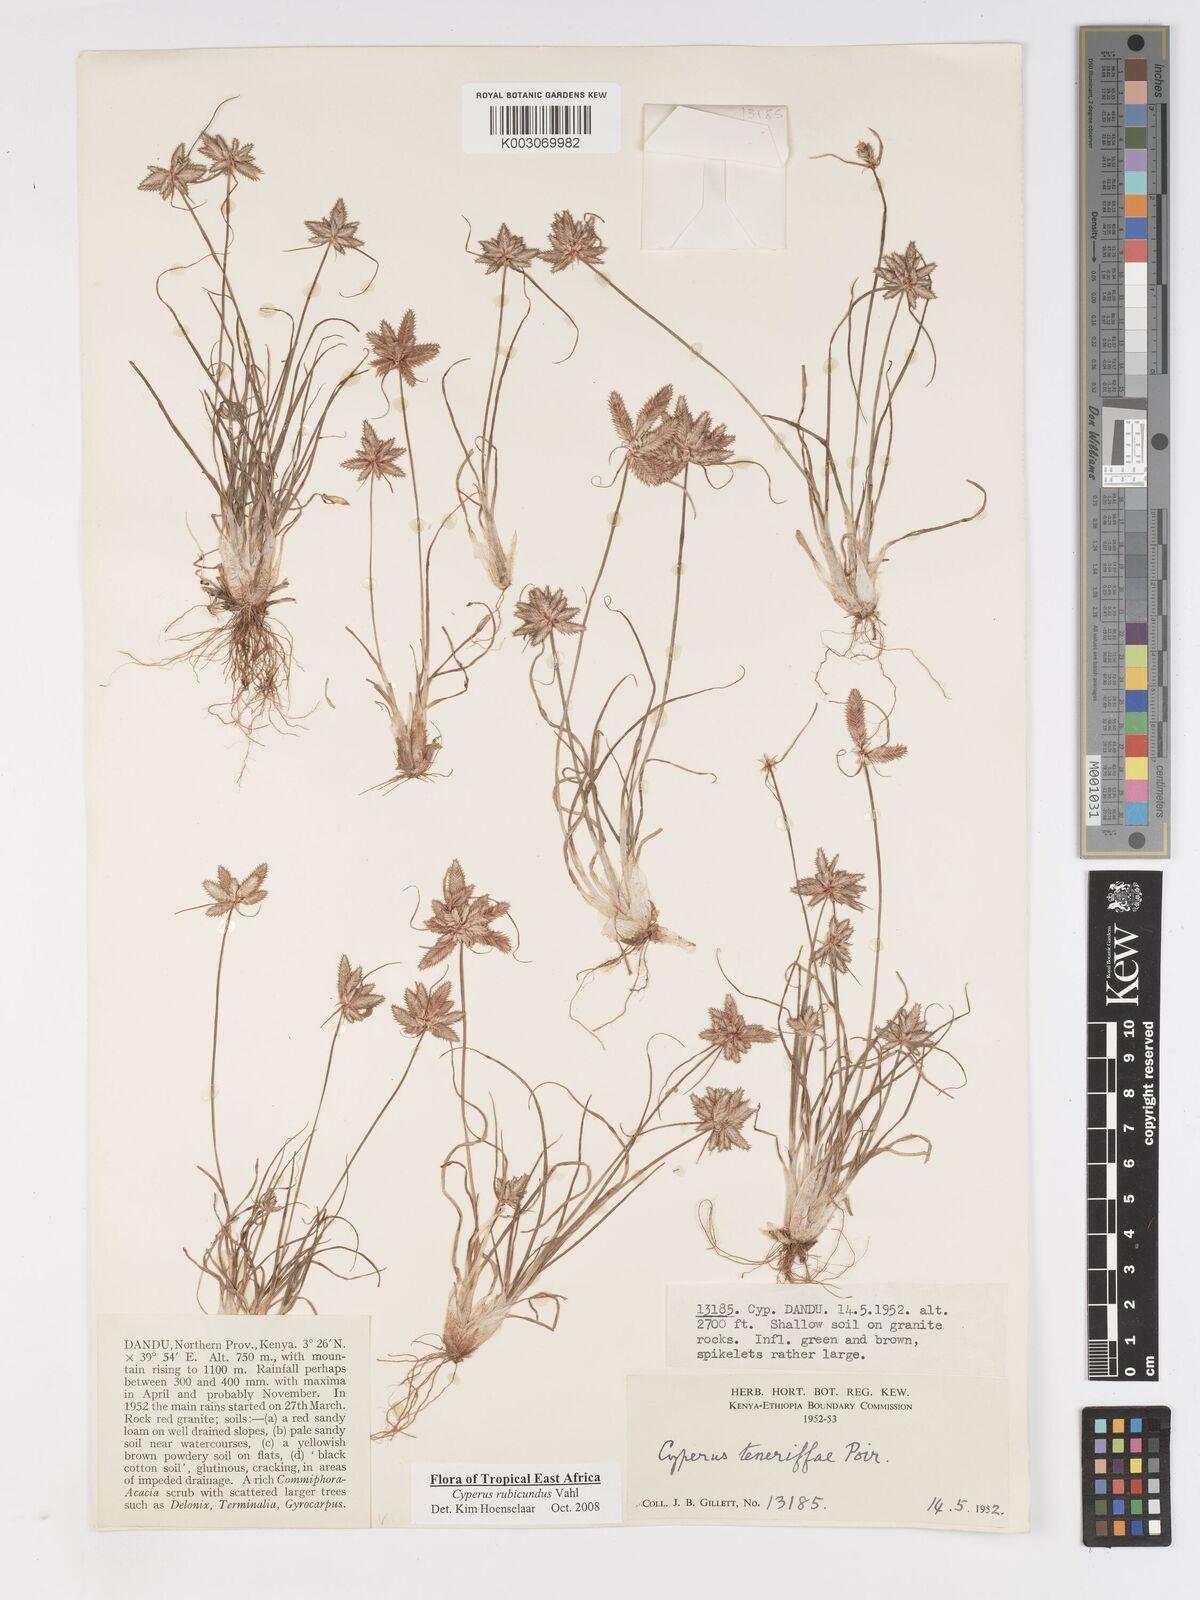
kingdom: Plantae
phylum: Tracheophyta
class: Liliopsida
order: Poales
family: Cyperaceae
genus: Cyperus
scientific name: Cyperus rubicundus
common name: Coco-grass
